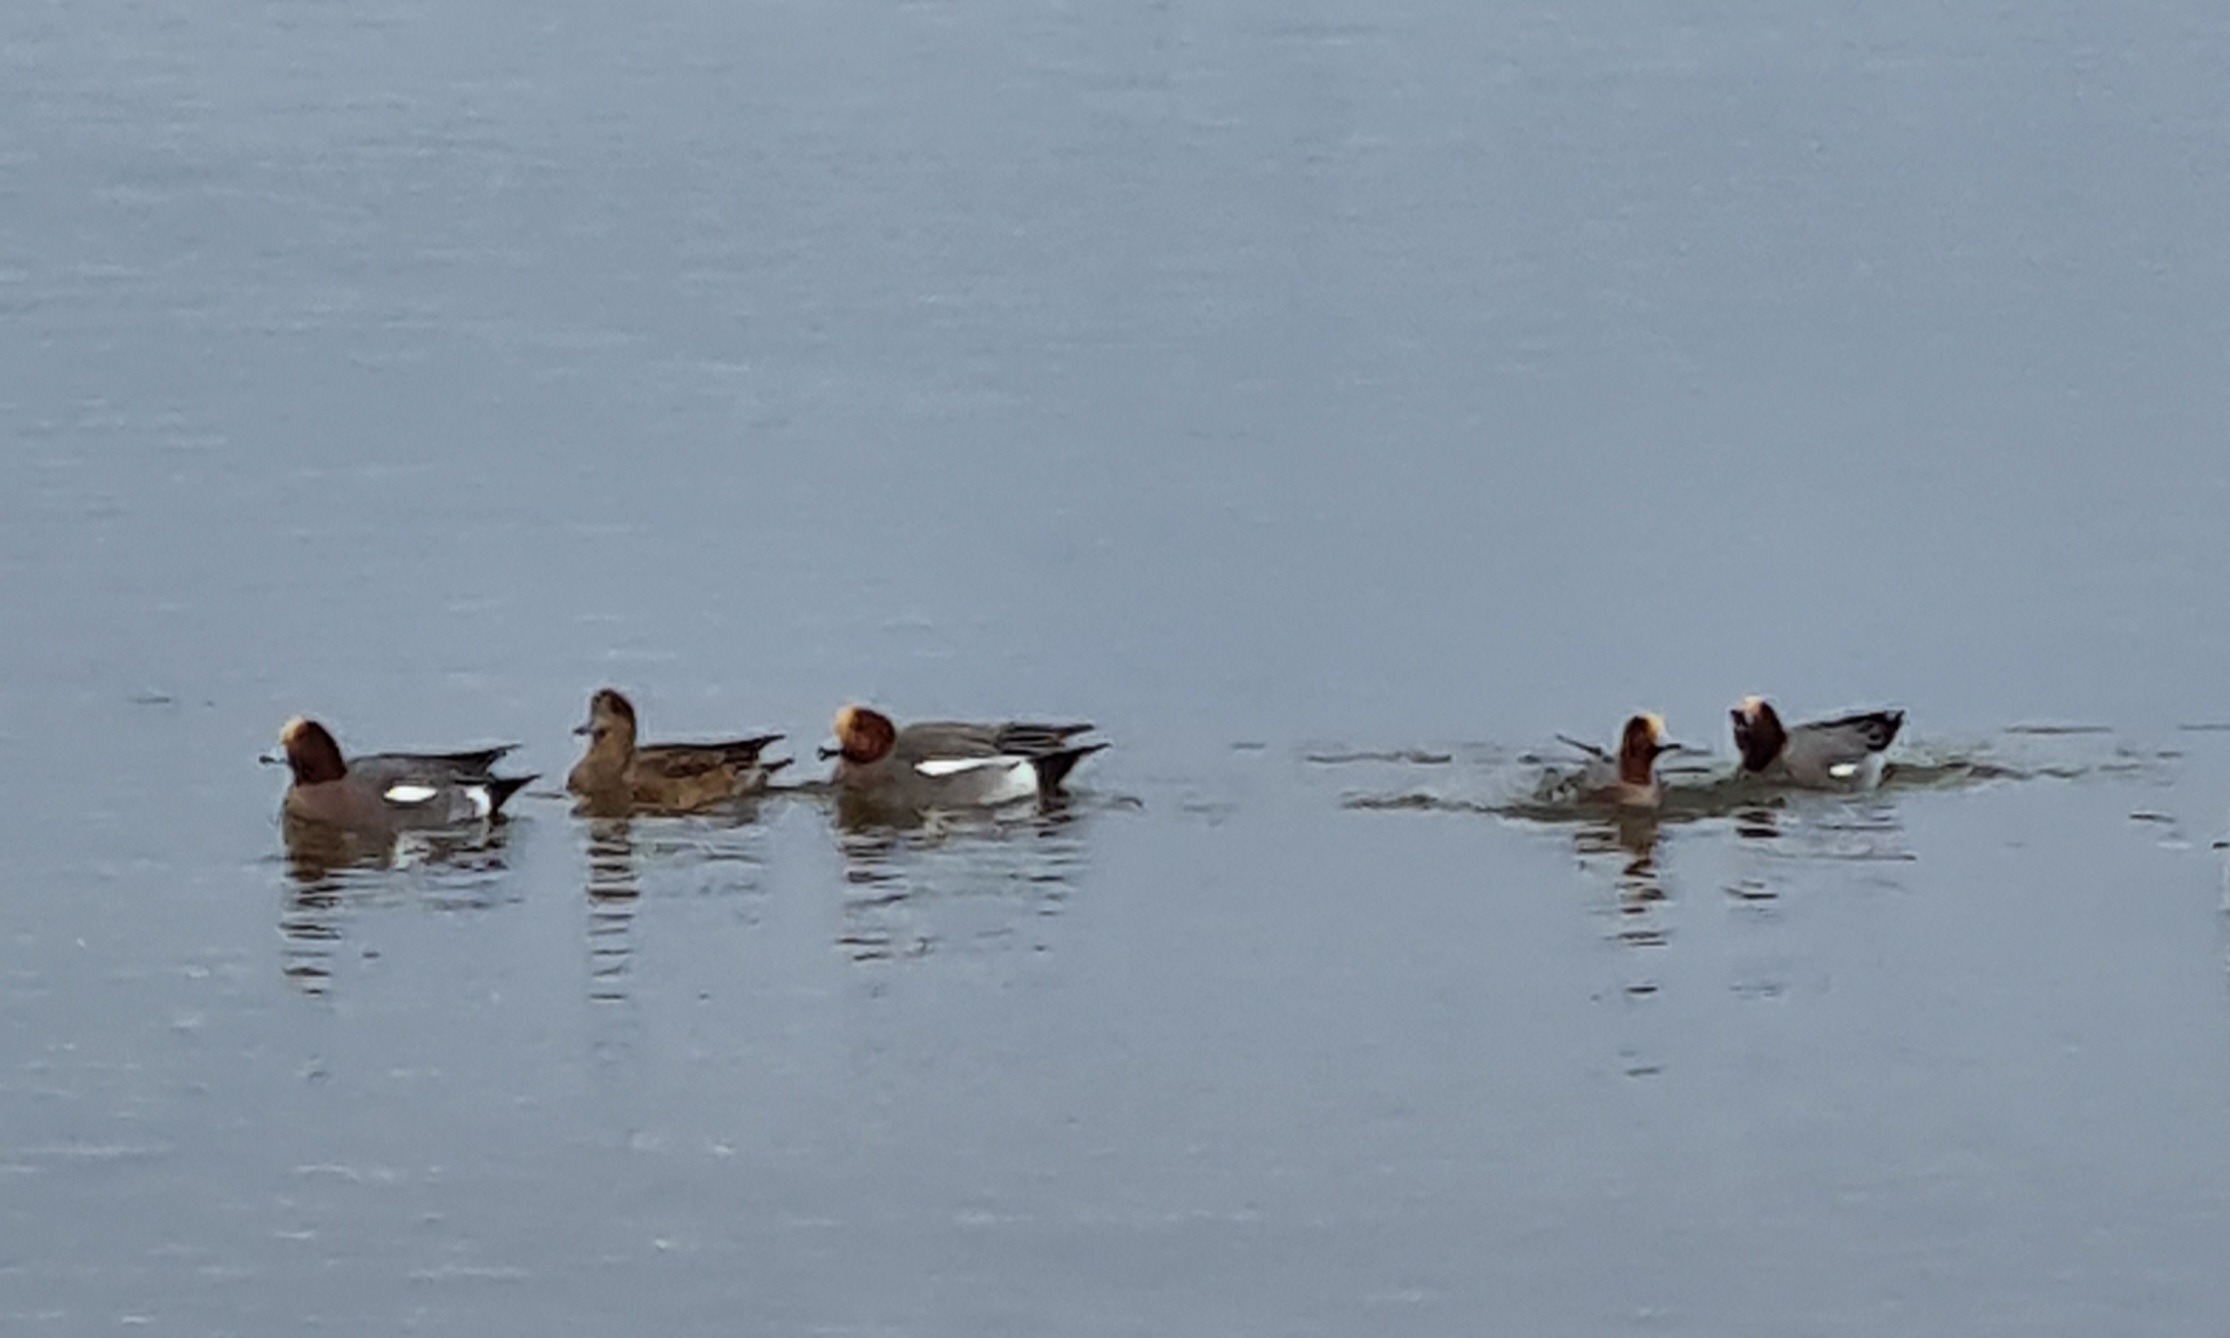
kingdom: Animalia
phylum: Chordata
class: Aves
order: Anseriformes
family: Anatidae
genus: Mareca
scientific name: Mareca penelope
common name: Pibeand
